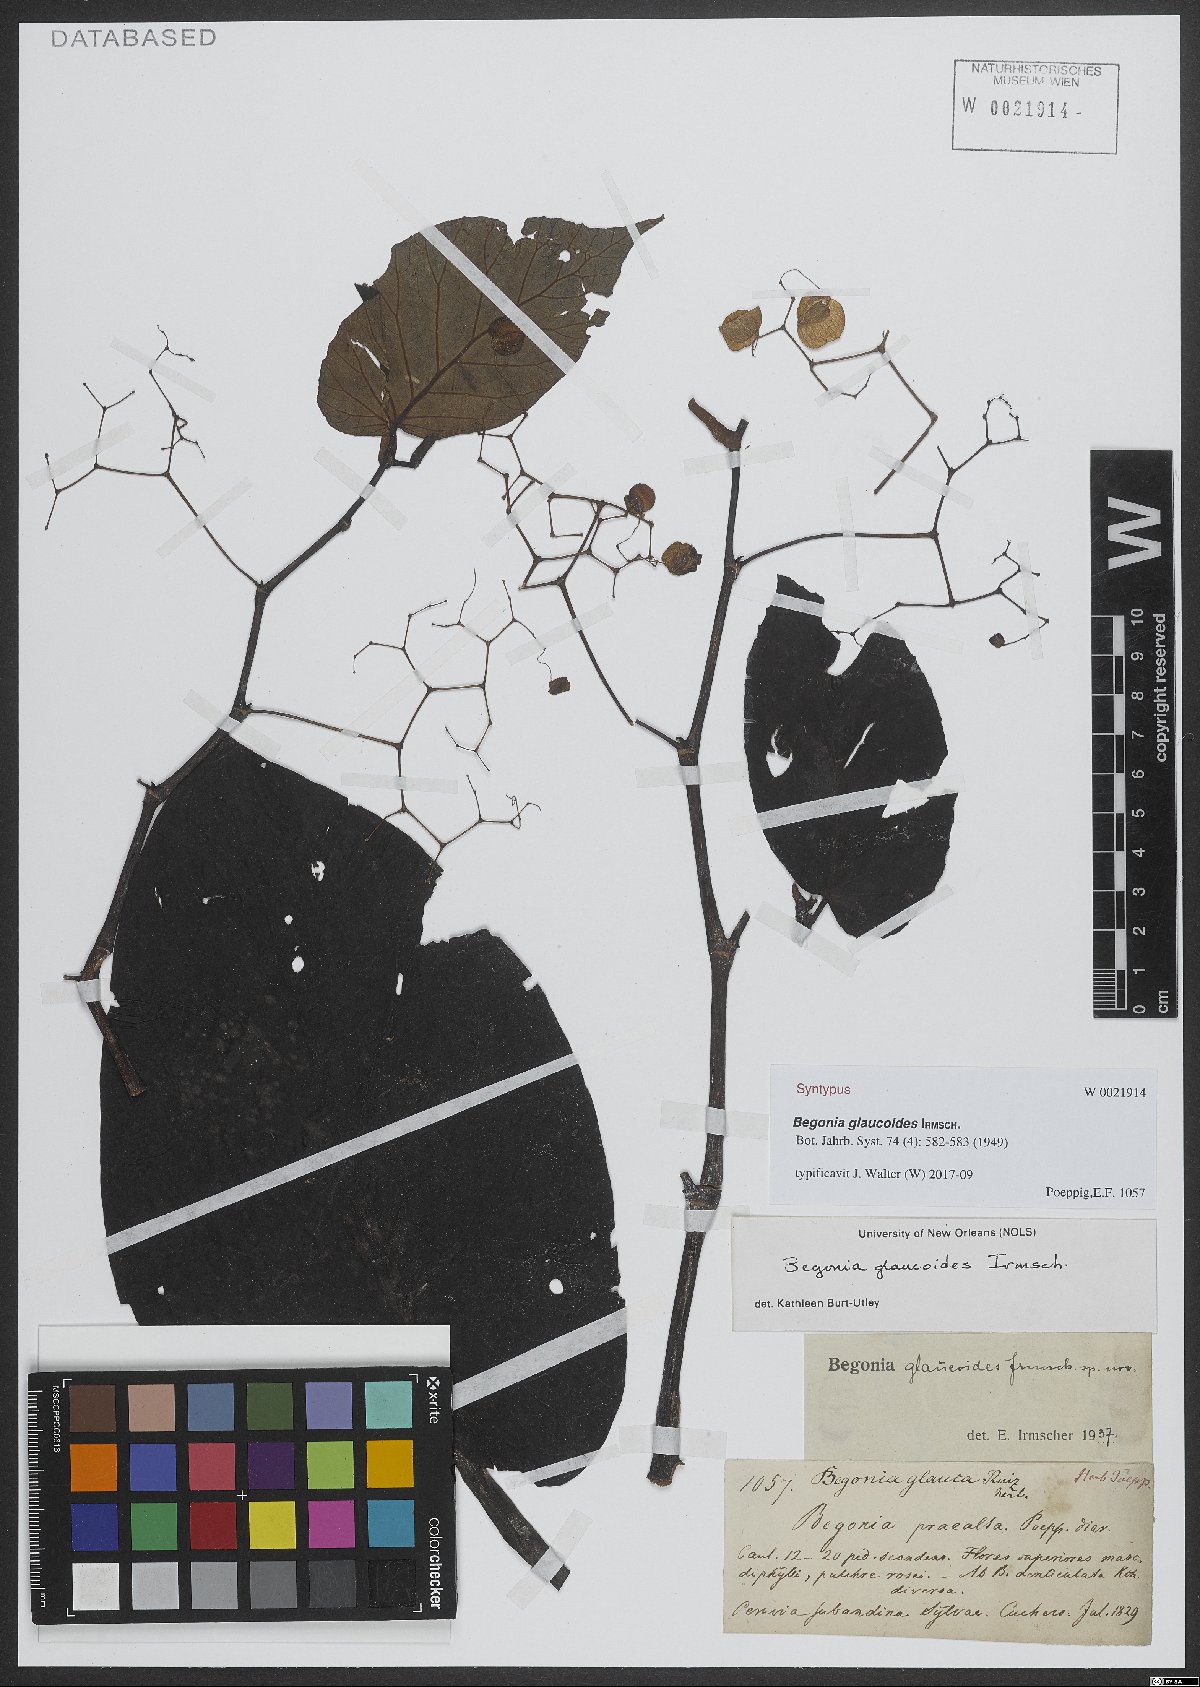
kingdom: Plantae
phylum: Tracheophyta
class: Magnoliopsida
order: Cucurbitales
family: Begoniaceae
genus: Begonia
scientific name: Begonia glaucoides
